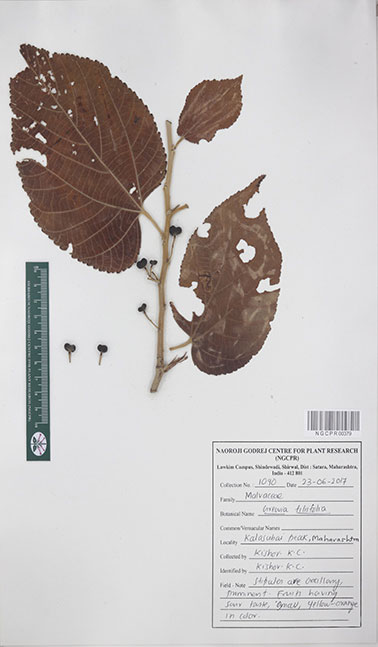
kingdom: Plantae
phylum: Tracheophyta
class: Magnoliopsida
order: Malvales
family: Malvaceae
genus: Grewia
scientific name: Grewia tiliifolia
